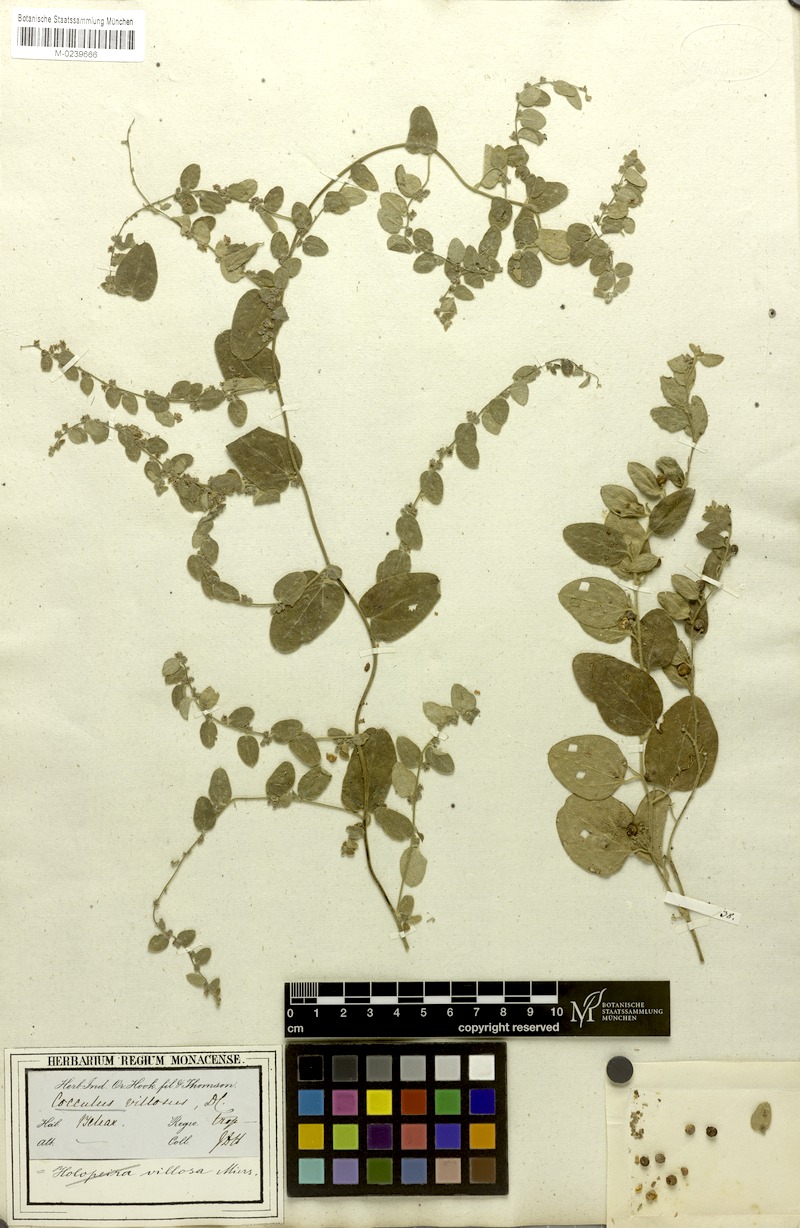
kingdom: Plantae
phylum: Tracheophyta
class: Magnoliopsida
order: Ranunculales
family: Menispermaceae
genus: Cocculus
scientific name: Cocculus hirsutus
